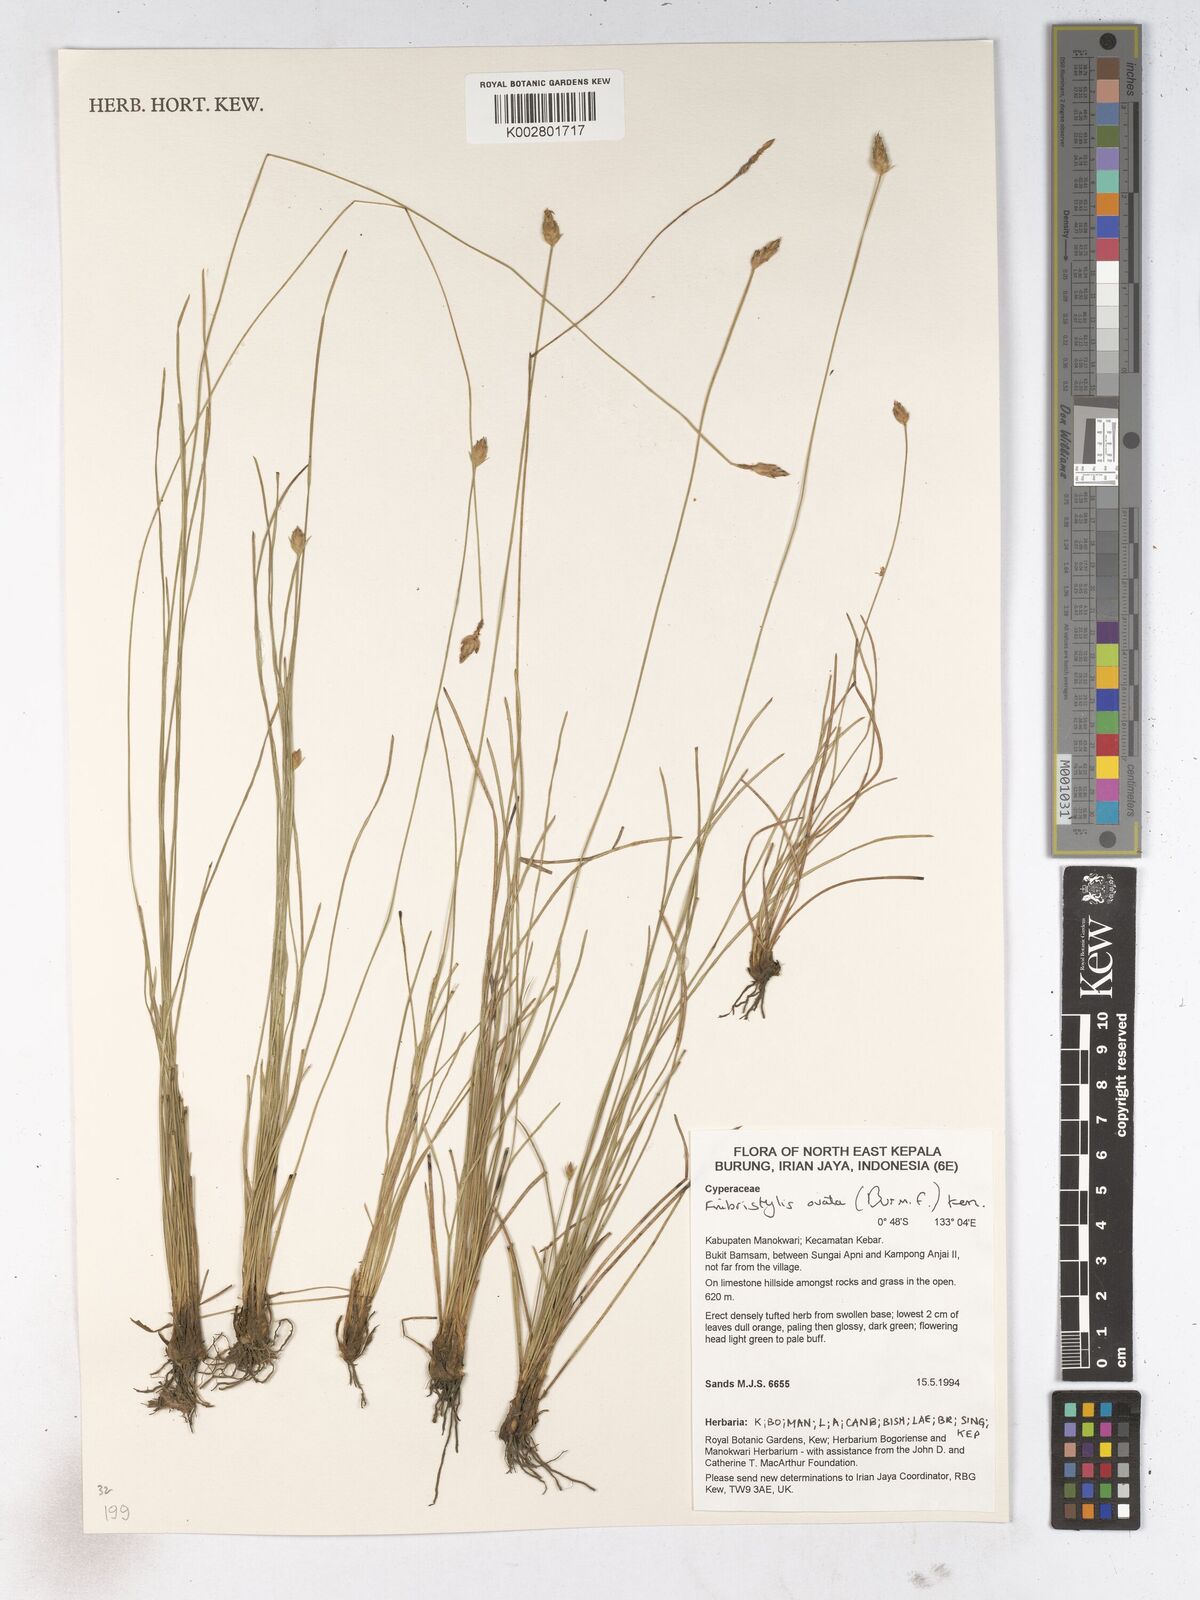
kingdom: Plantae
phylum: Tracheophyta
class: Liliopsida
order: Poales
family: Cyperaceae
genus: Abildgaardia
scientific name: Abildgaardia ovata
